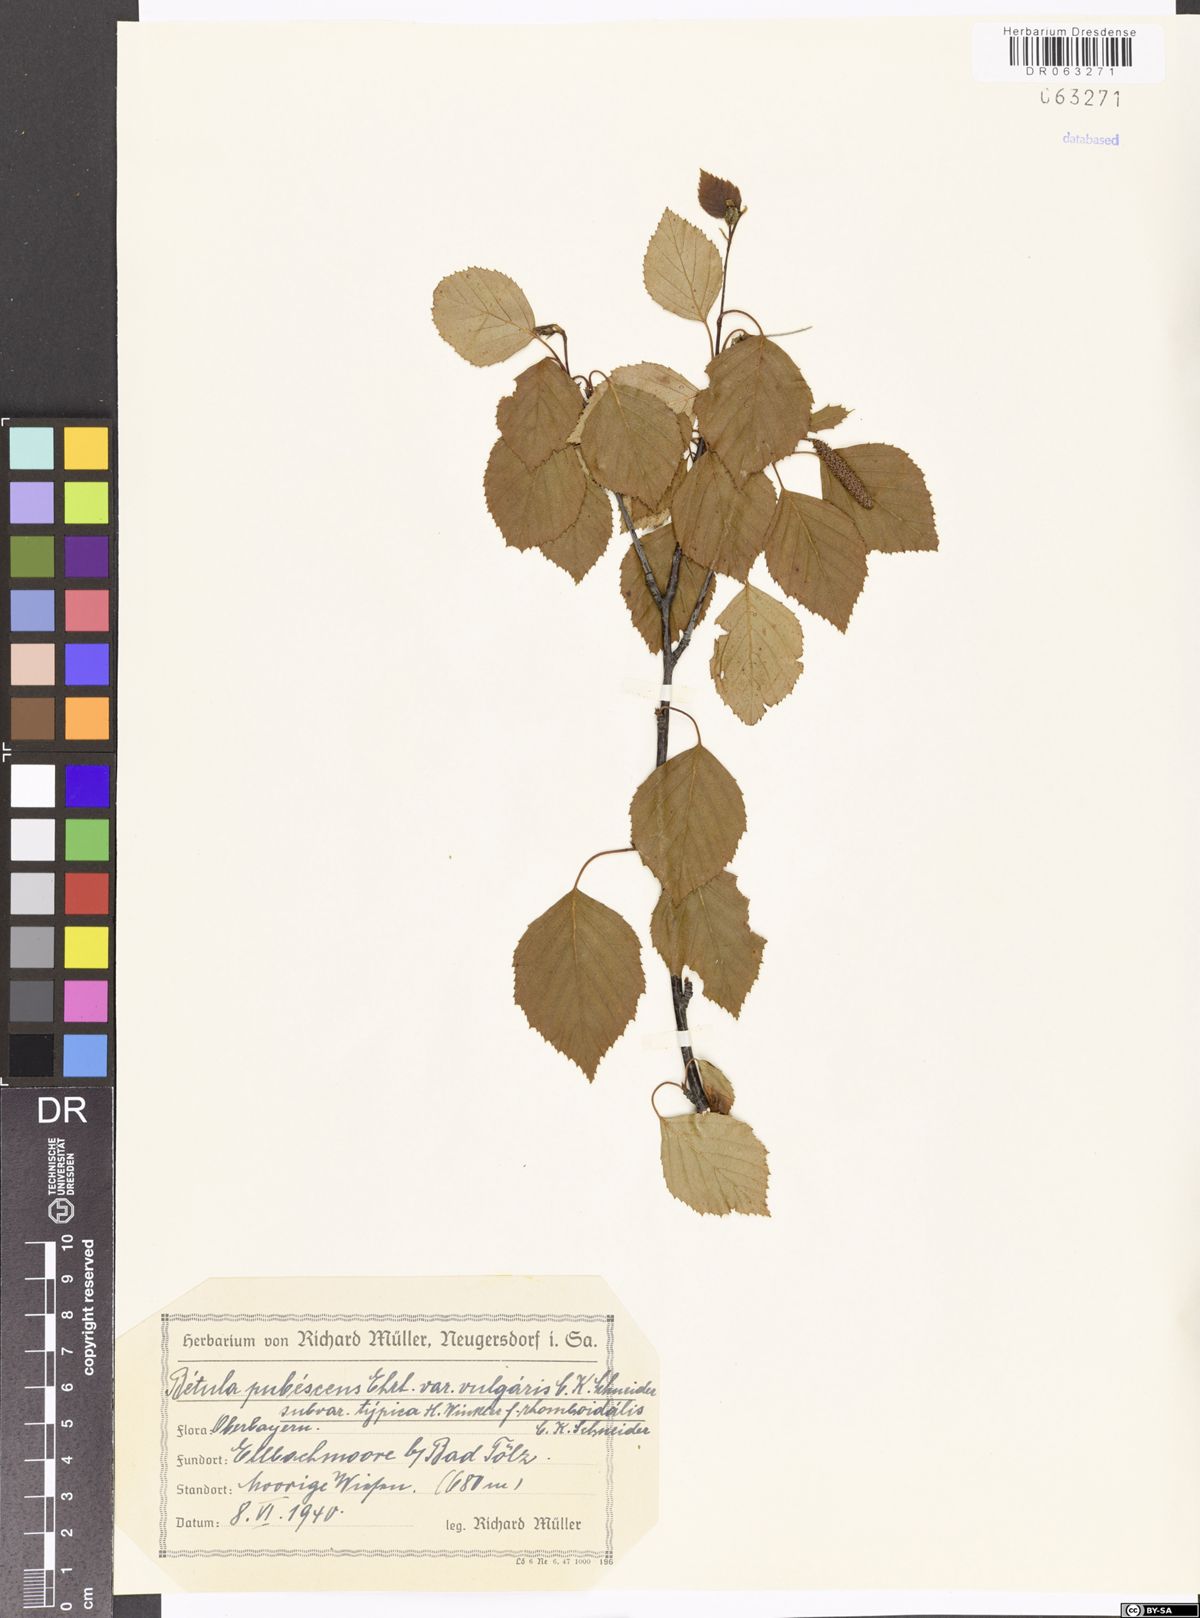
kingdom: Plantae
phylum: Tracheophyta
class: Magnoliopsida
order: Fagales
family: Betulaceae
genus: Betula
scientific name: Betula pubescens
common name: Downy birch
